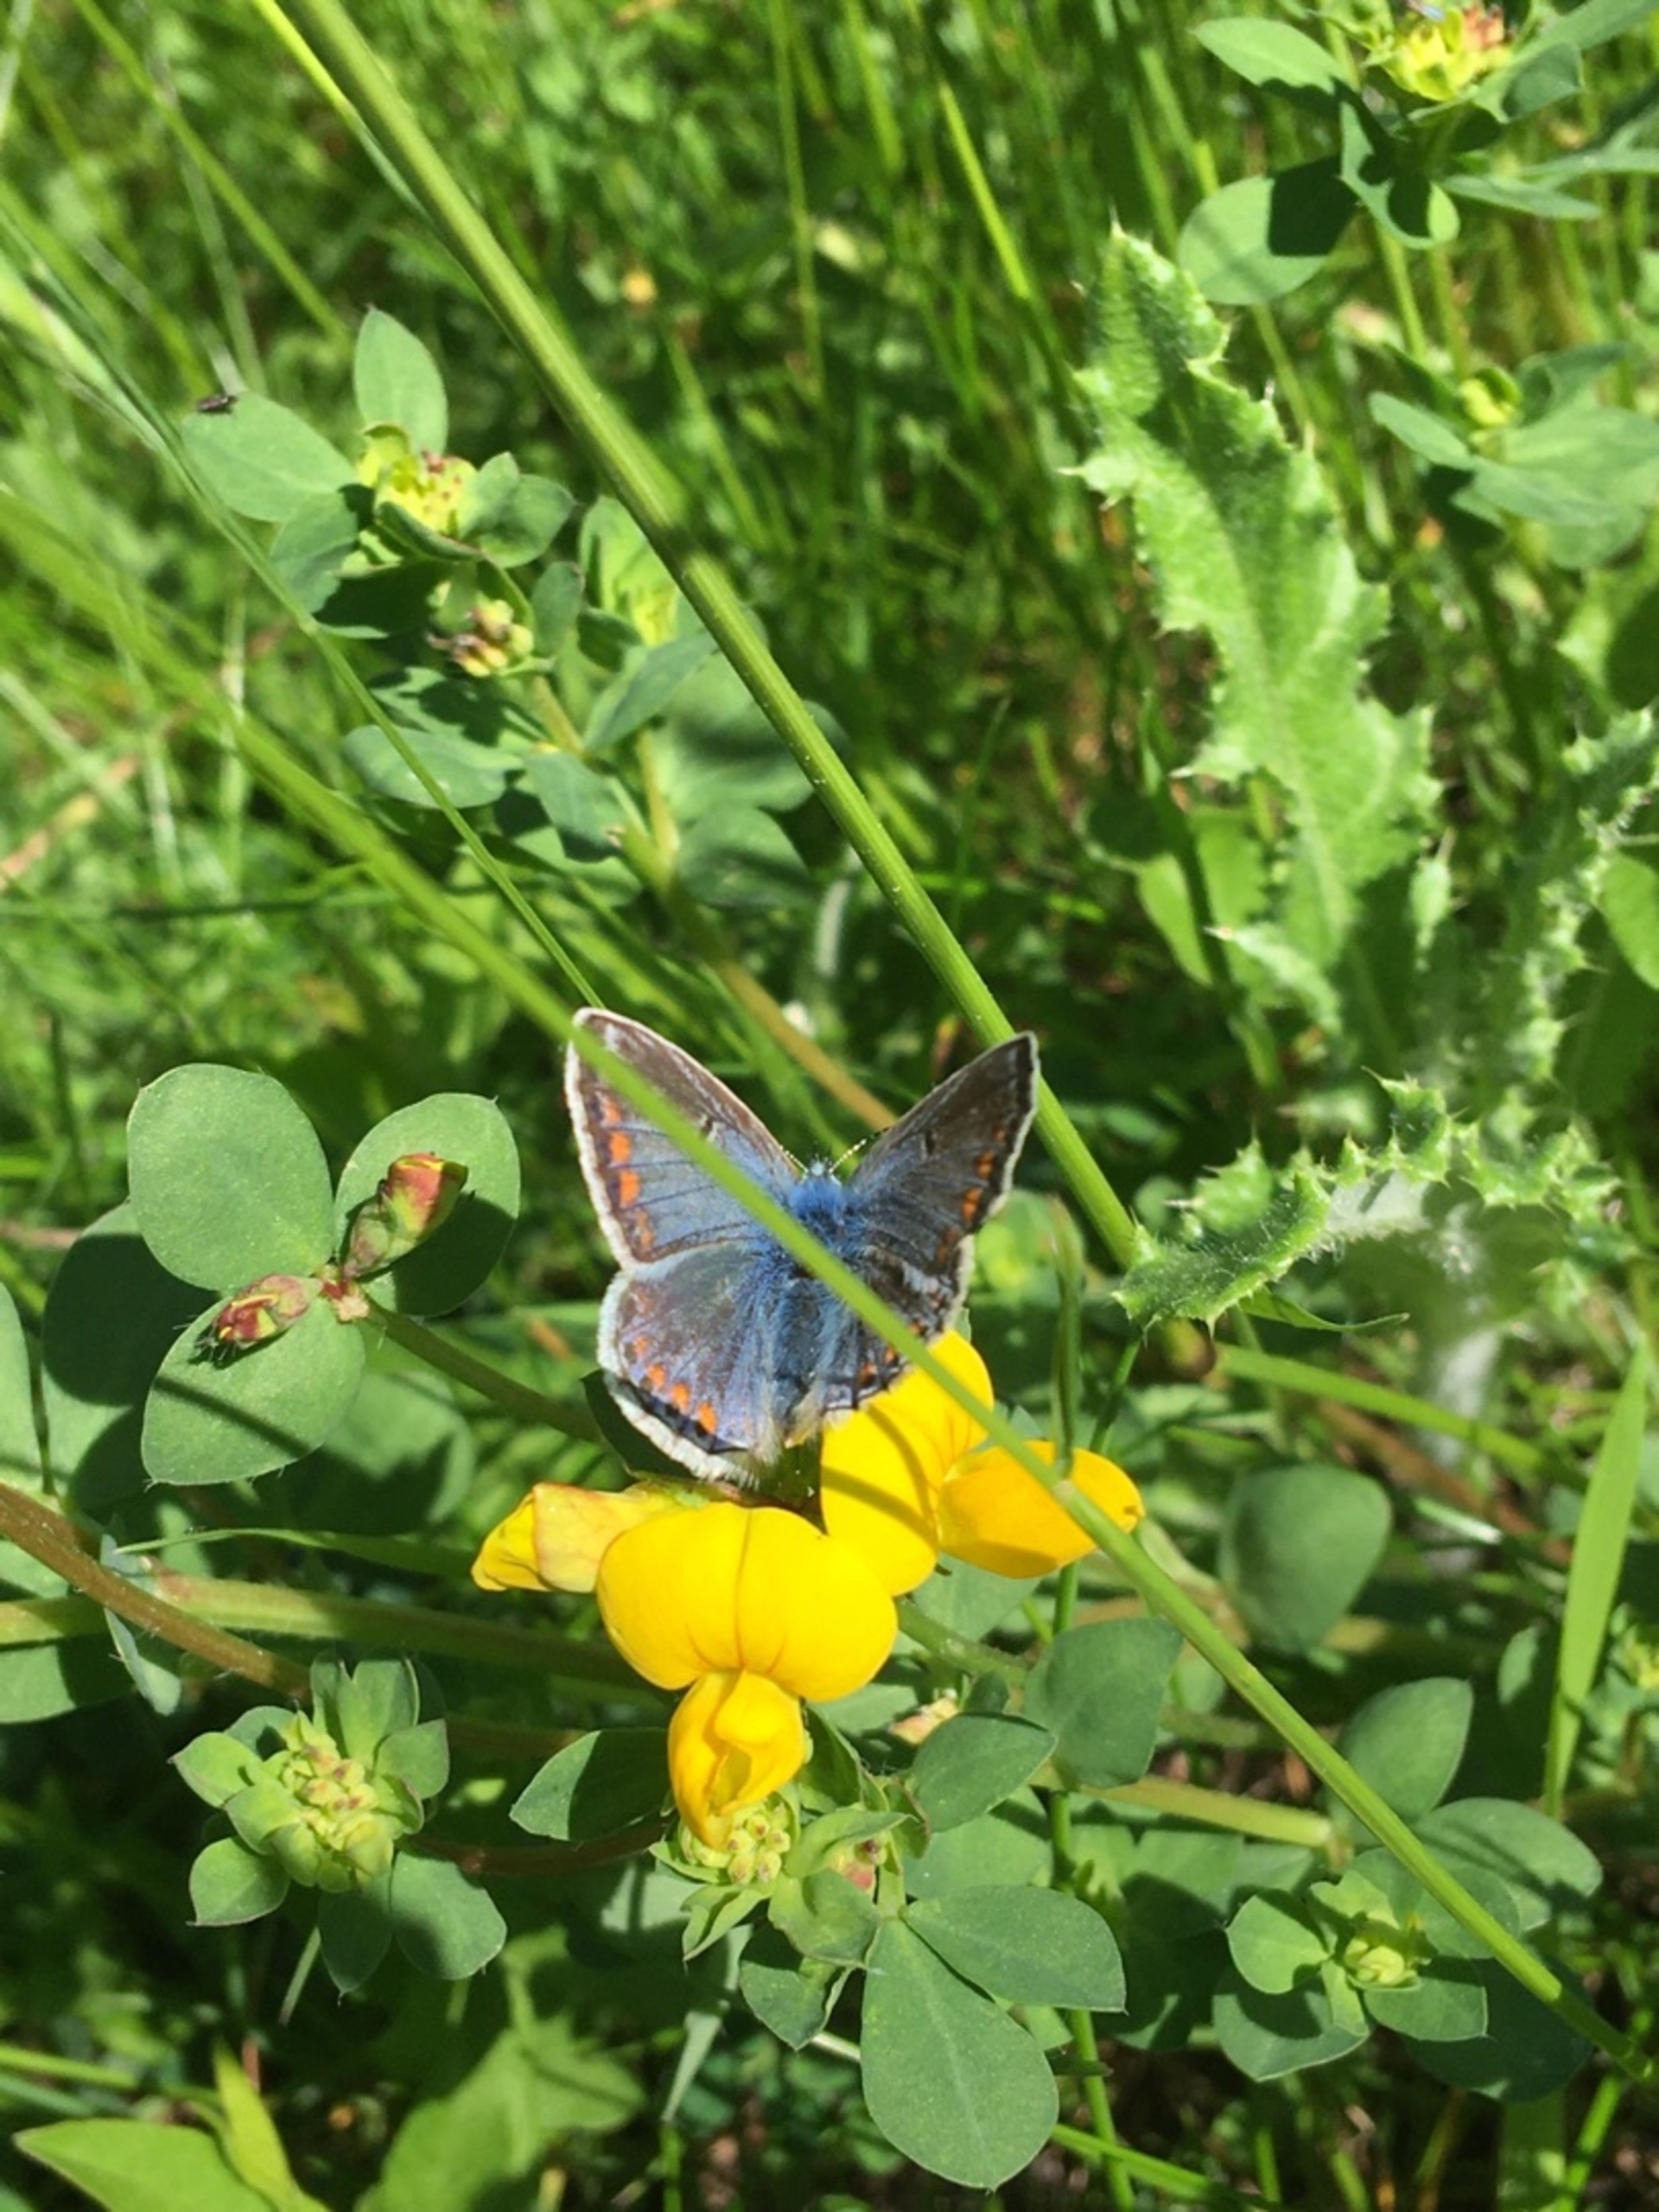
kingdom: Animalia
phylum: Arthropoda
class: Insecta
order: Lepidoptera
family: Lycaenidae
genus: Polyommatus
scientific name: Polyommatus icarus
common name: Almindelig blåfugl
